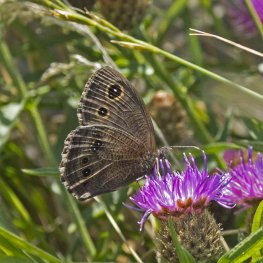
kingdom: Animalia
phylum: Arthropoda
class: Insecta
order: Lepidoptera
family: Nymphalidae
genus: Cercyonis
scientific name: Cercyonis pegala
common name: Common Wood-Nymph
